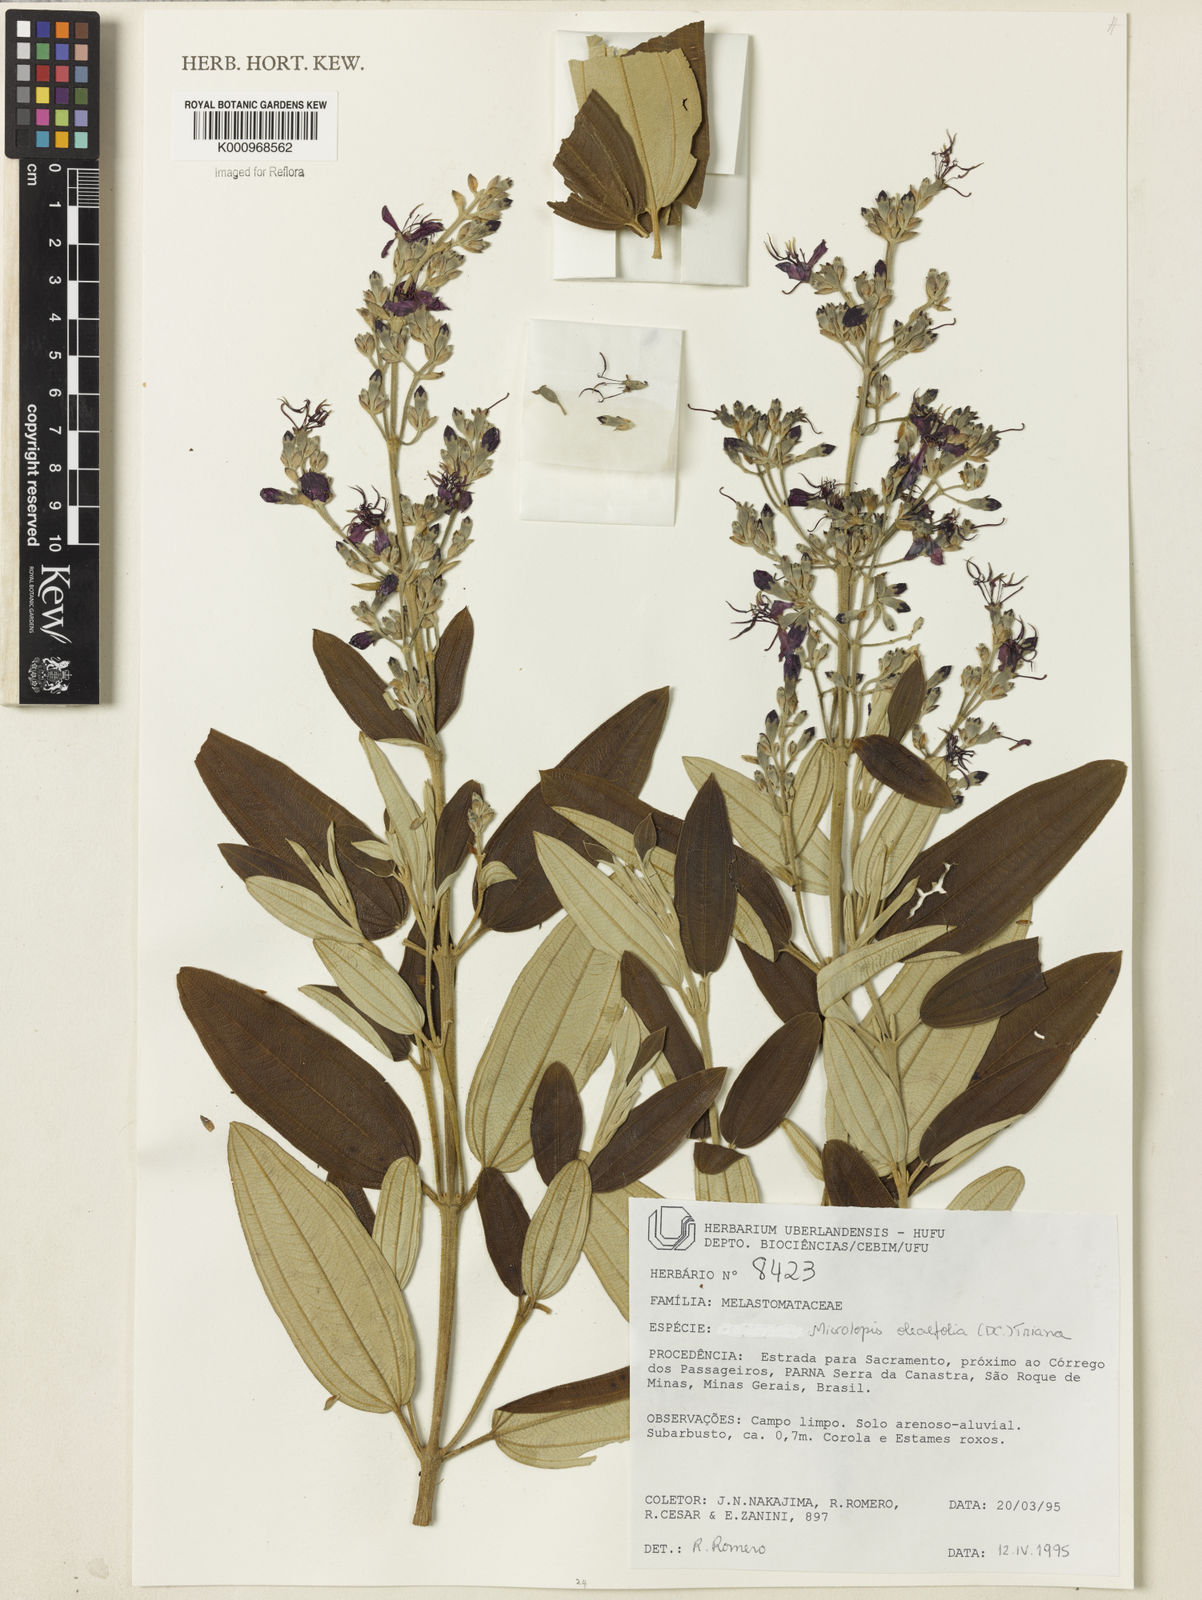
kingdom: Plantae
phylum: Tracheophyta
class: Magnoliopsida
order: Myrtales
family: Melastomataceae
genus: Pleroma
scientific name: Pleroma oleifolia
